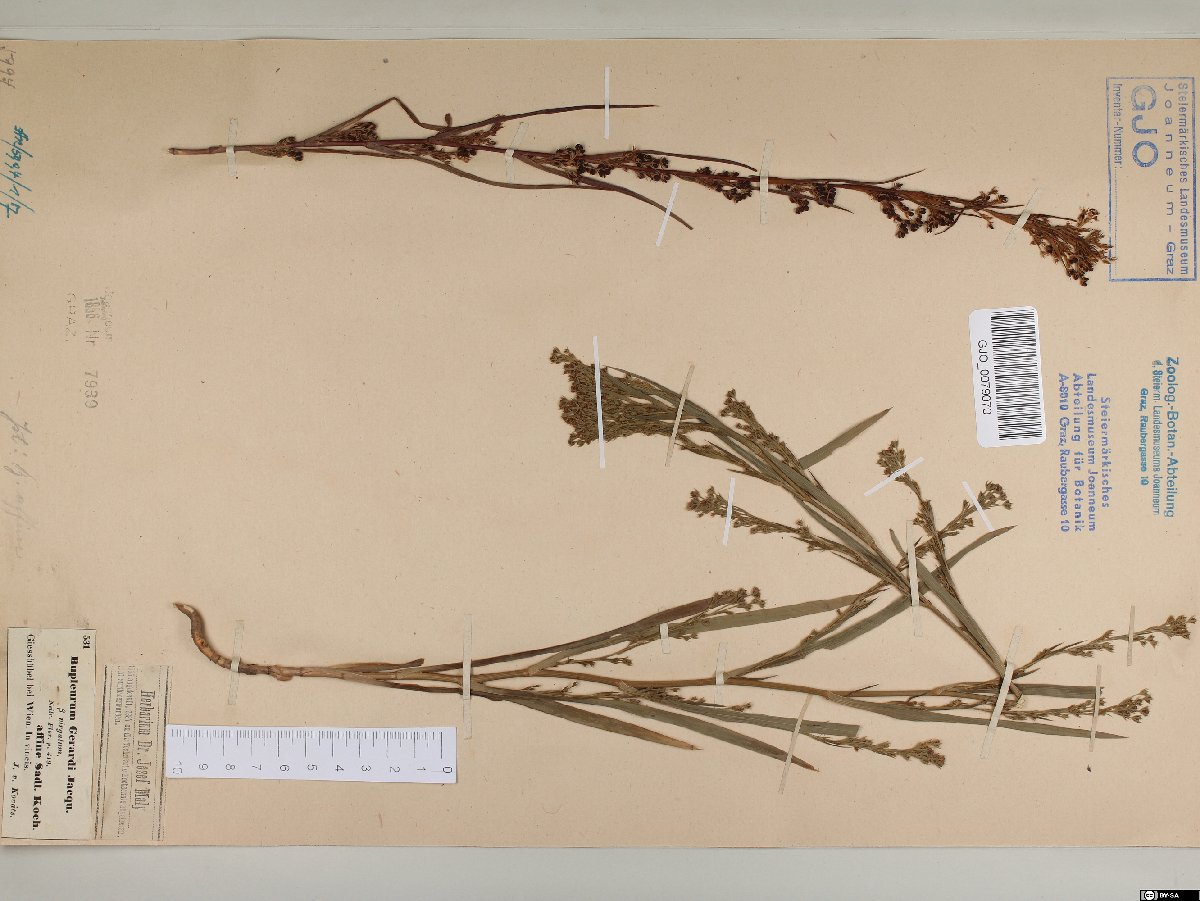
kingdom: Plantae
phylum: Tracheophyta
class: Magnoliopsida
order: Apiales
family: Apiaceae
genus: Bupleurum
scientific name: Bupleurum affine
